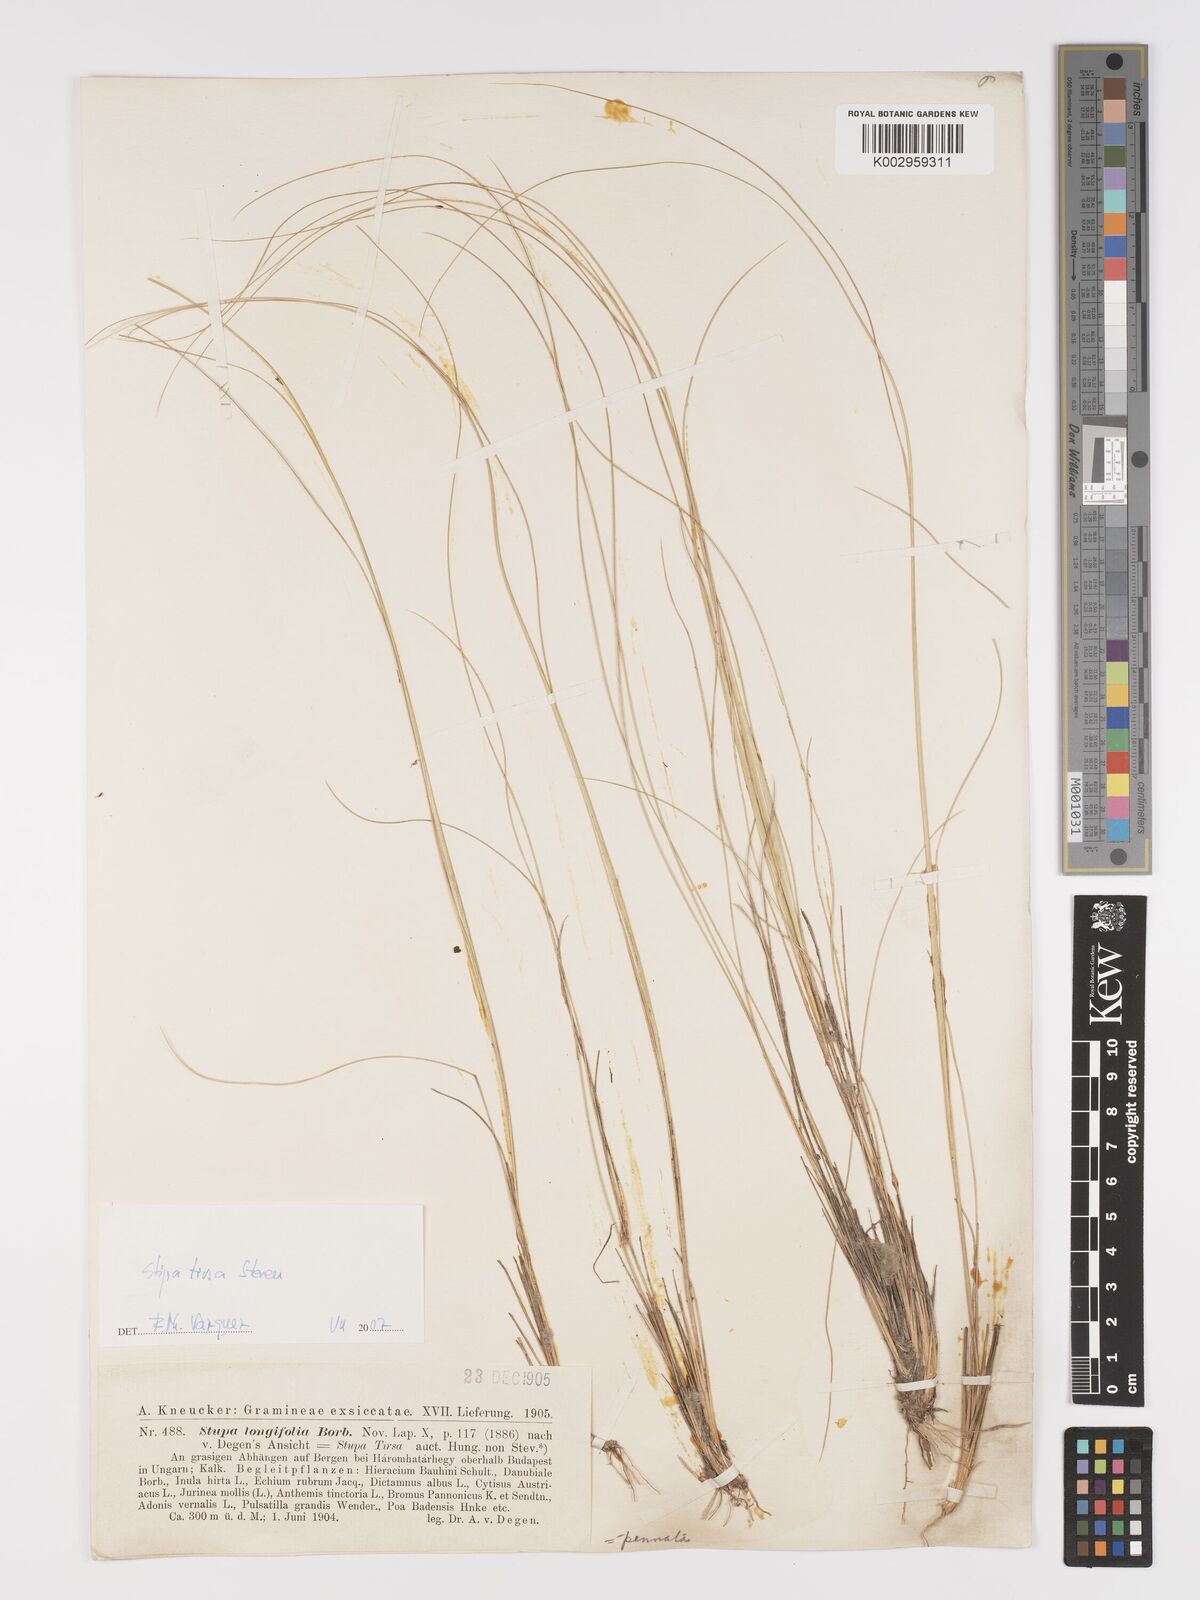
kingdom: Plantae
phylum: Tracheophyta
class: Liliopsida
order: Poales
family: Poaceae
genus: Stipa
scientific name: Stipa tirsa
